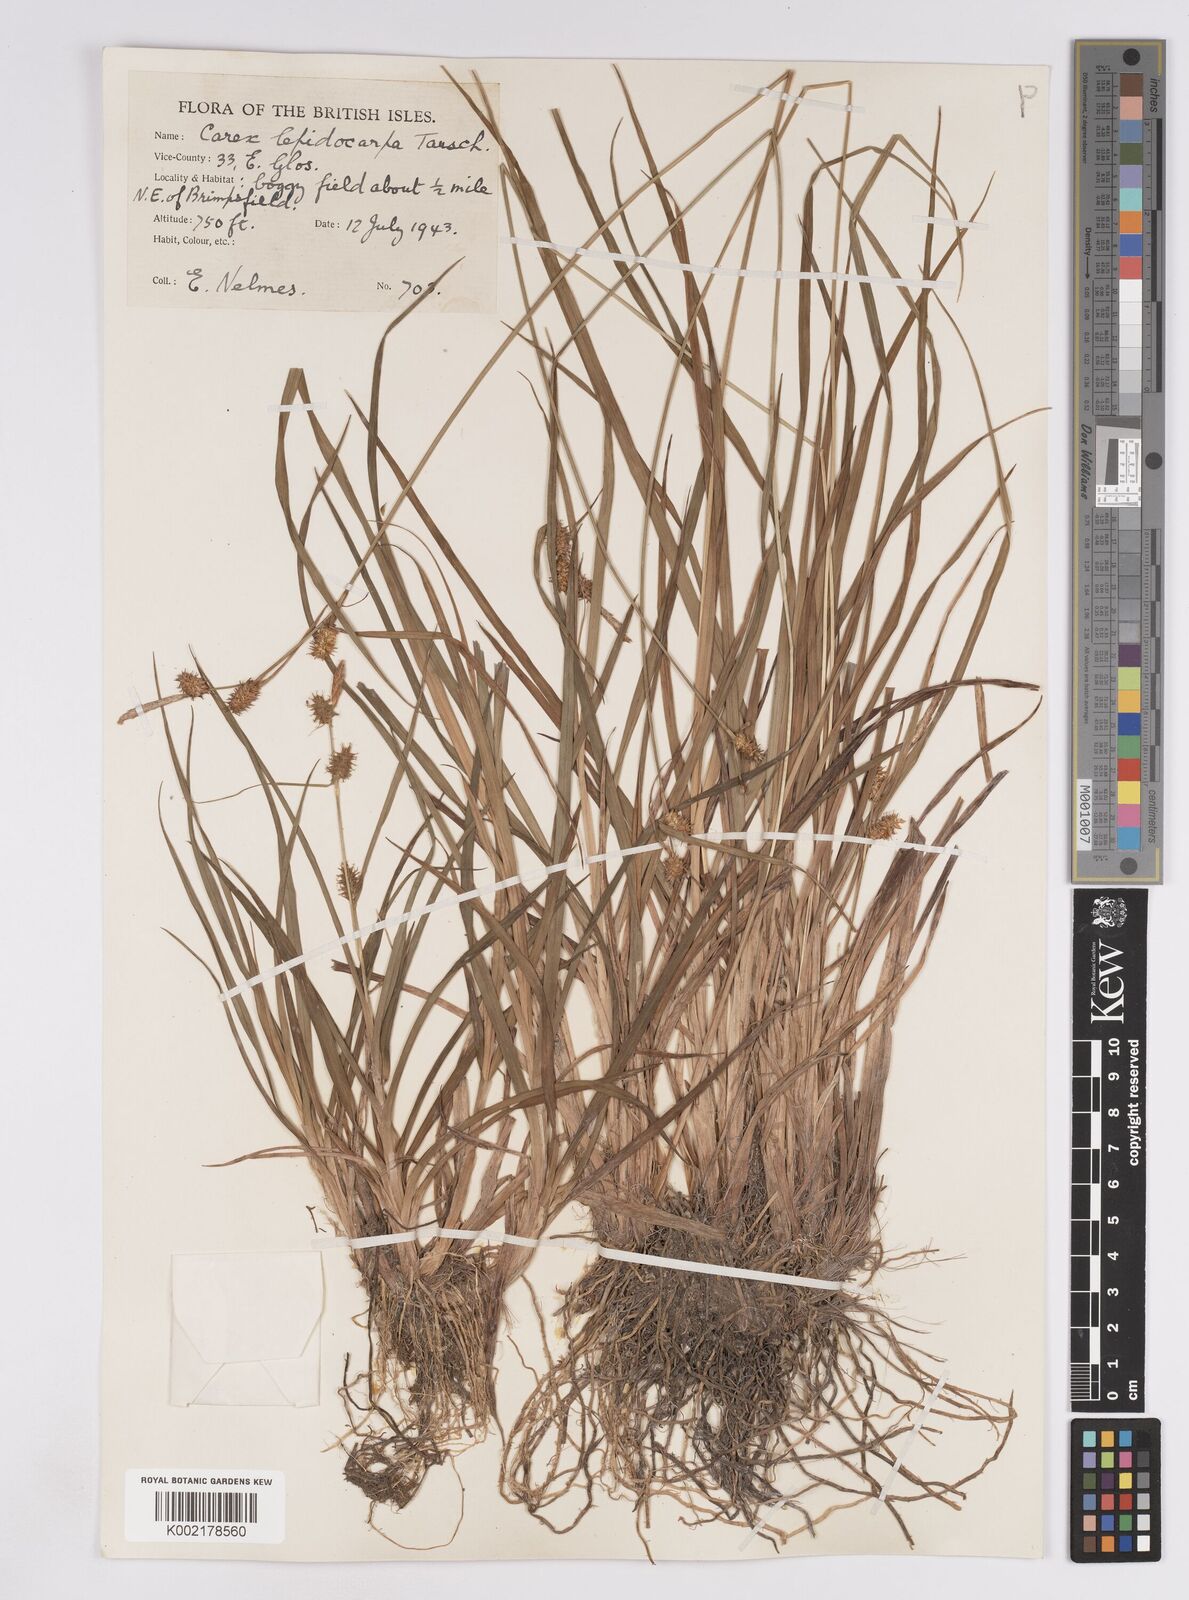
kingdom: Plantae
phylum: Tracheophyta
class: Liliopsida
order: Poales
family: Cyperaceae
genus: Carex
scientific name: Carex lepidocarpa
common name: Long-stalked yellow-sedge
